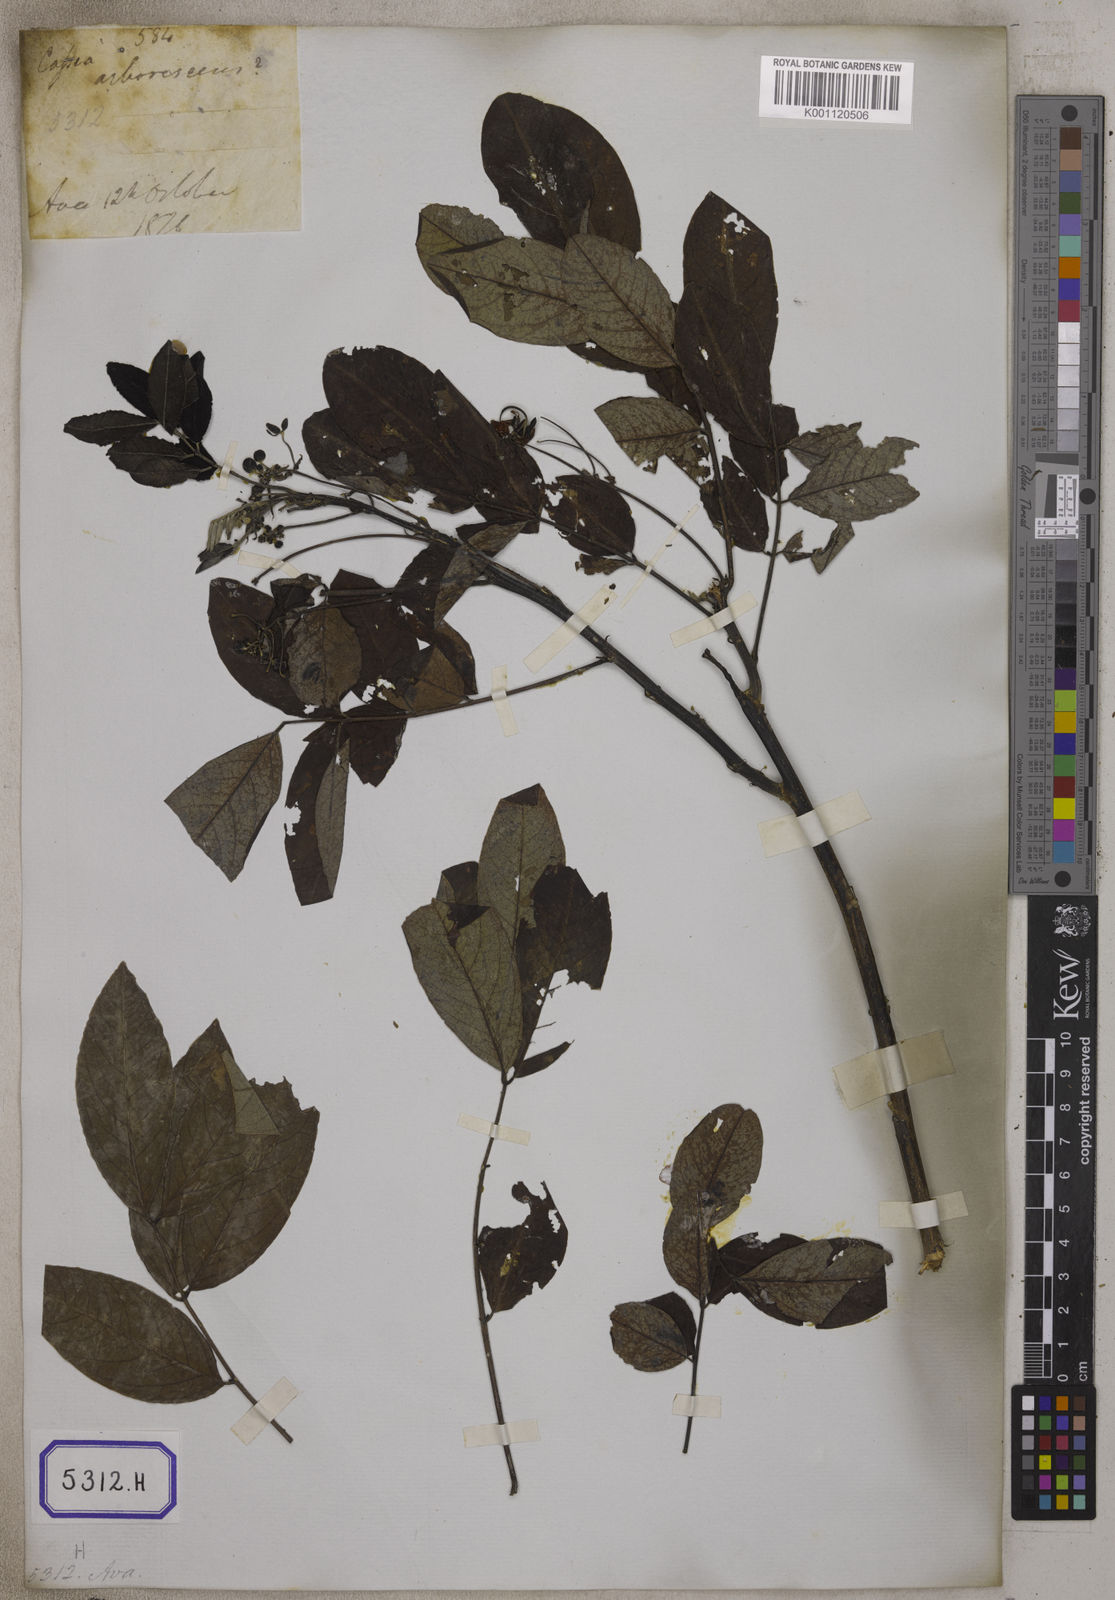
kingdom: Plantae
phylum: Tracheophyta
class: Magnoliopsida
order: Fabales
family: Fabaceae
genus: Senna
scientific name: Senna sulfurea
